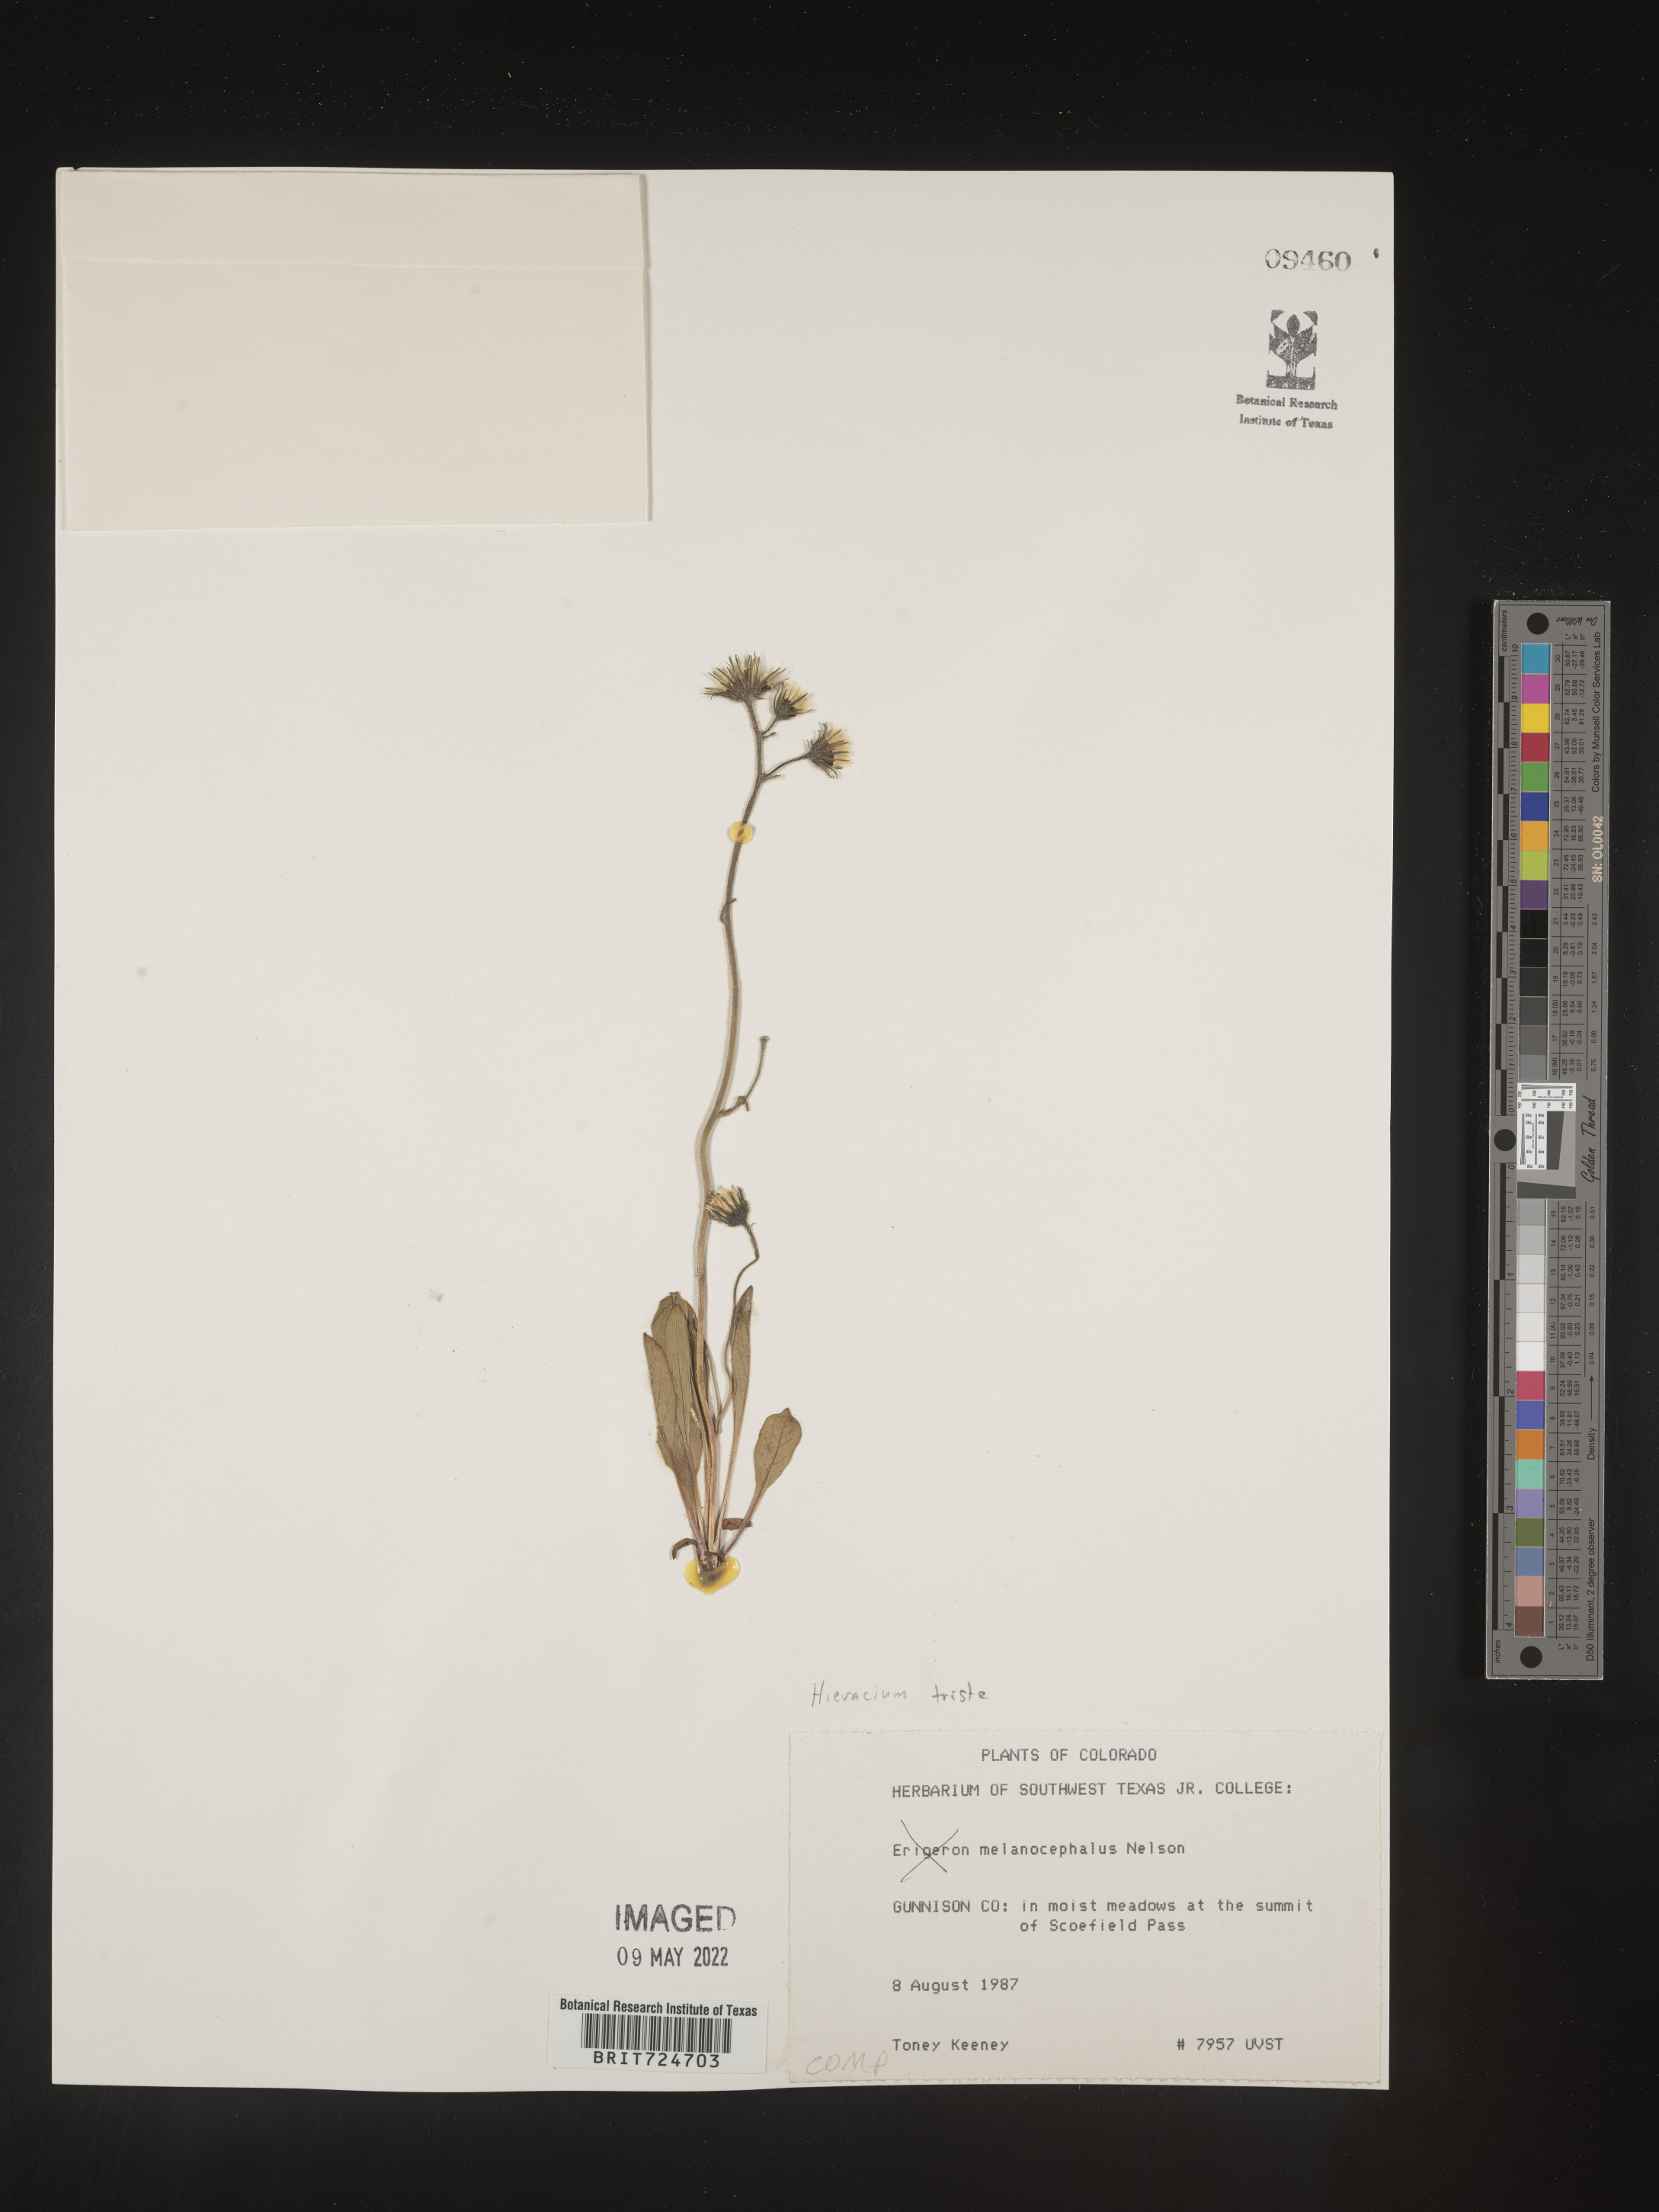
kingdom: Plantae
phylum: Tracheophyta
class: Magnoliopsida
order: Asterales
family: Asteraceae
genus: Hieracium
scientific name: Hieracium
